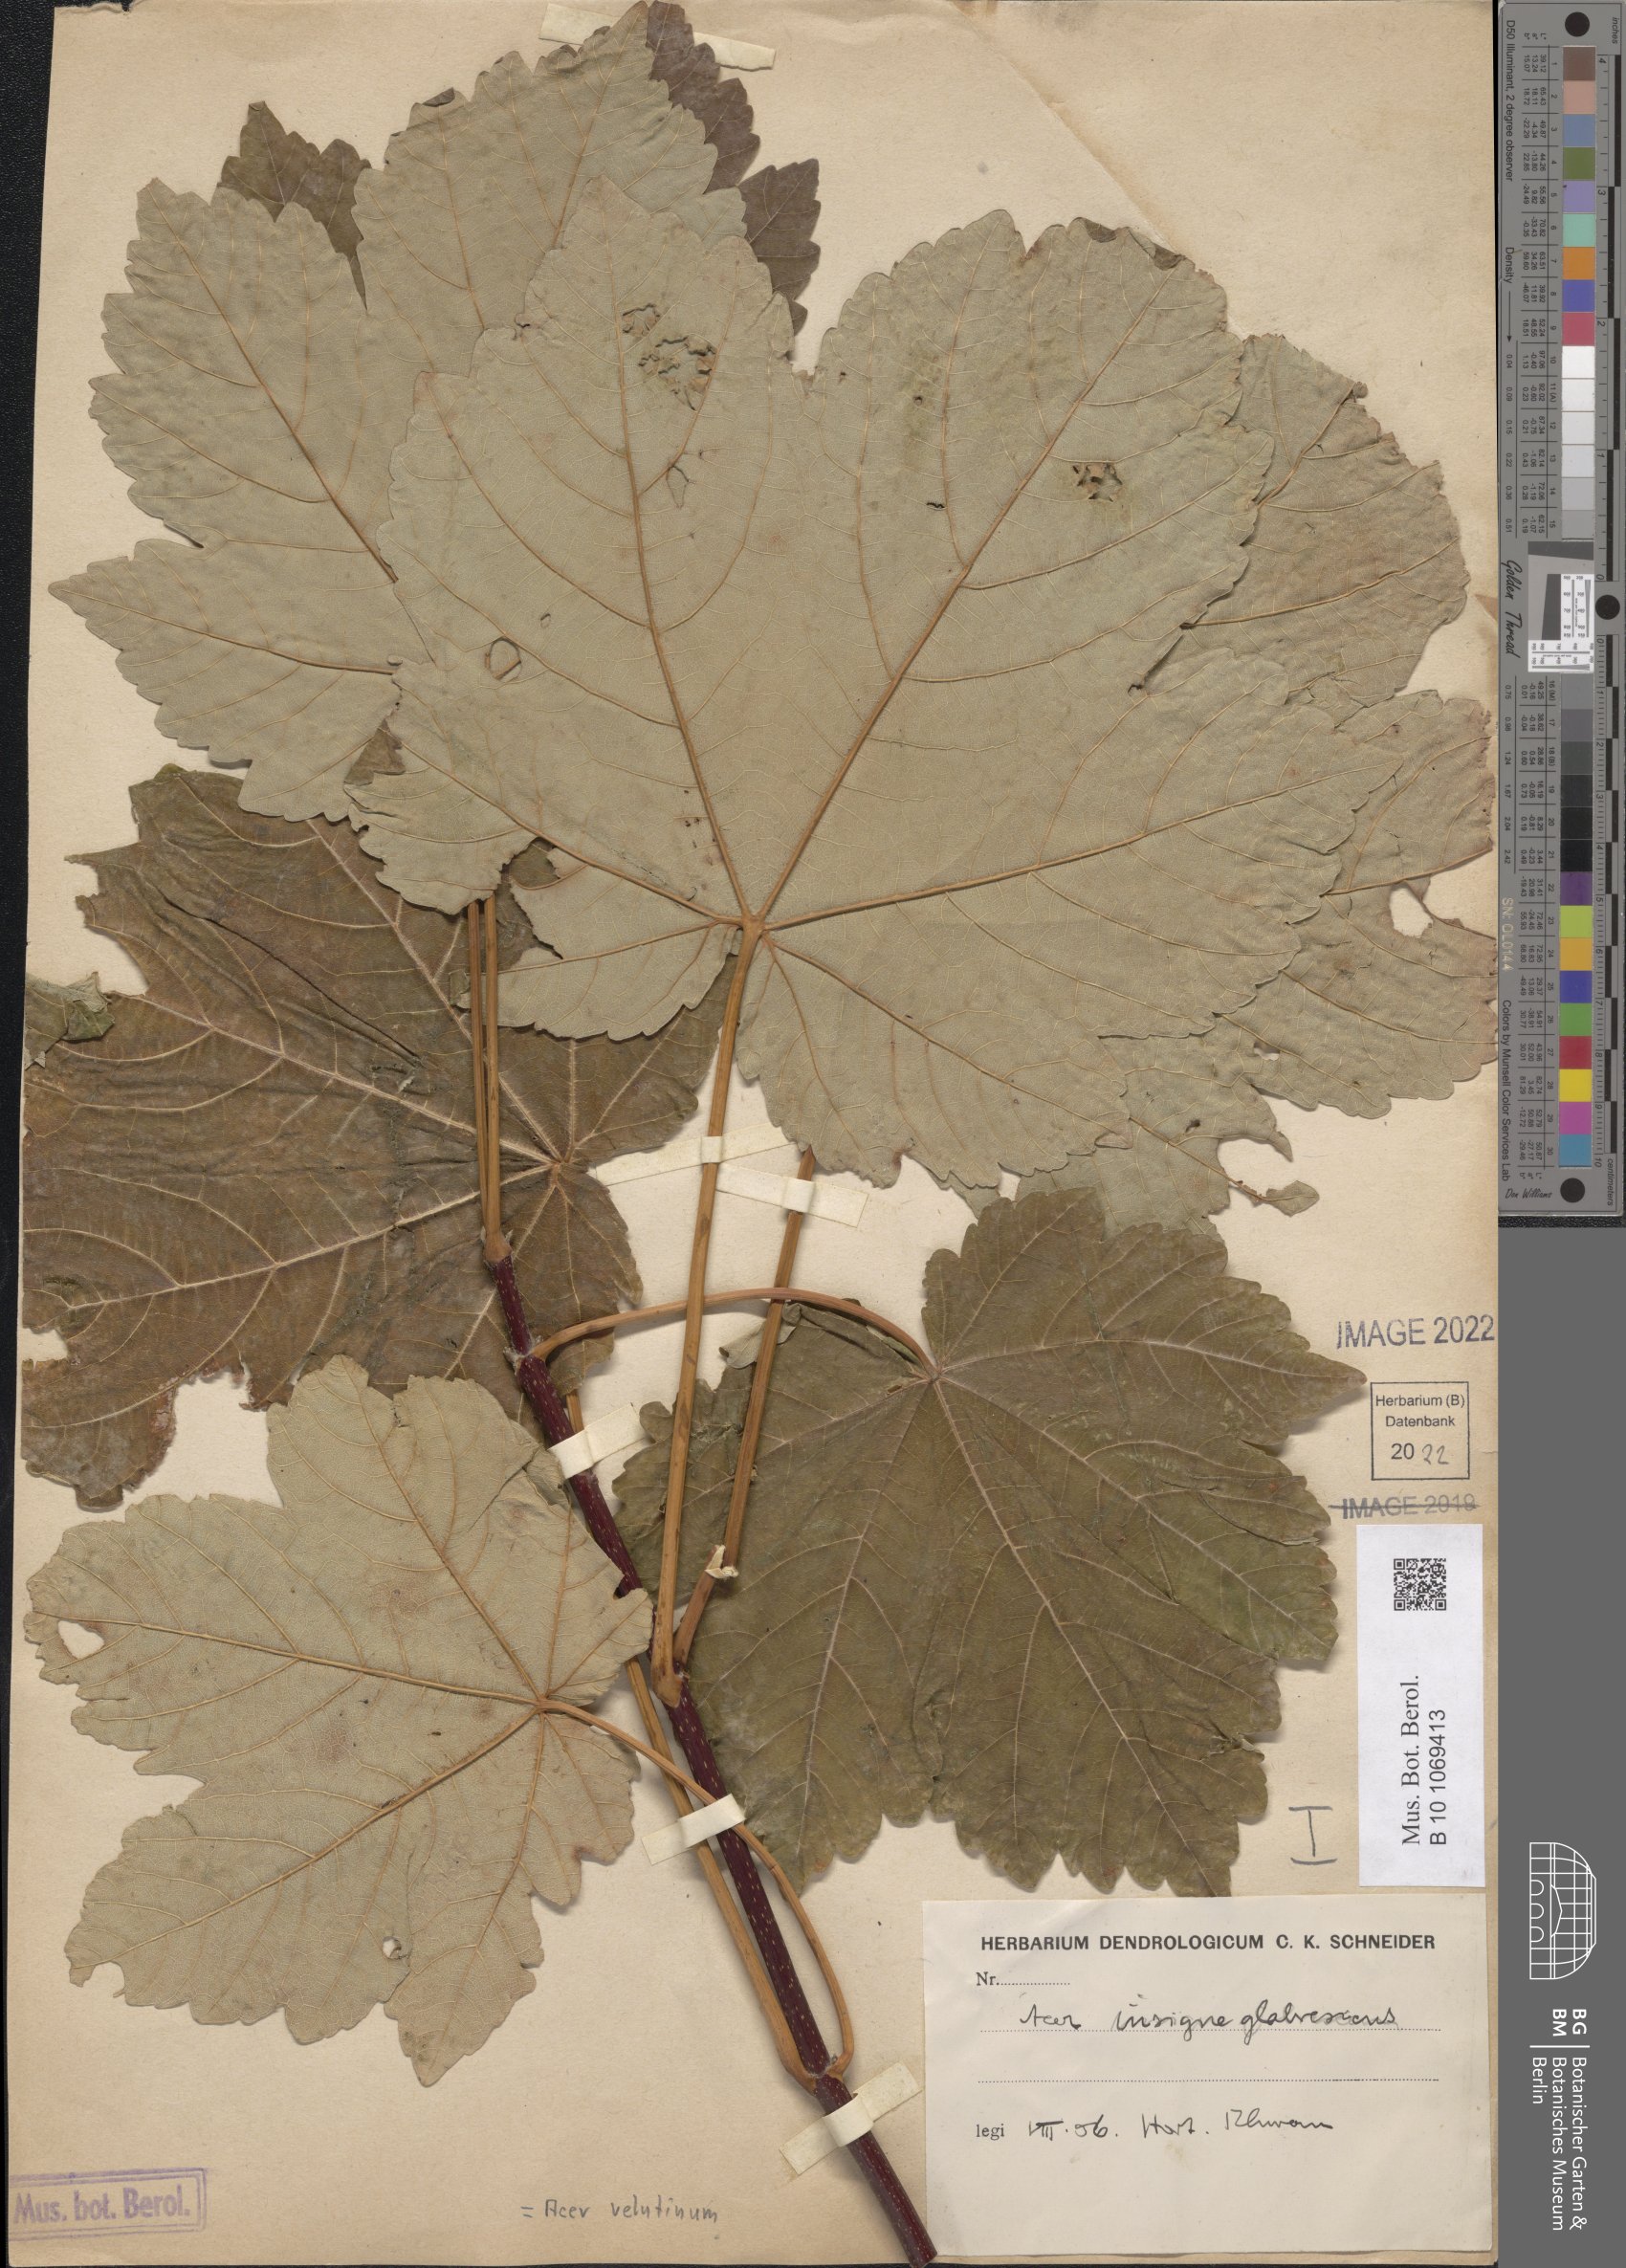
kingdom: Plantae
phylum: Tracheophyta
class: Magnoliopsida
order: Sapindales
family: Sapindaceae
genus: Acer
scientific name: Acer velutinum
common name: Velvet maple
